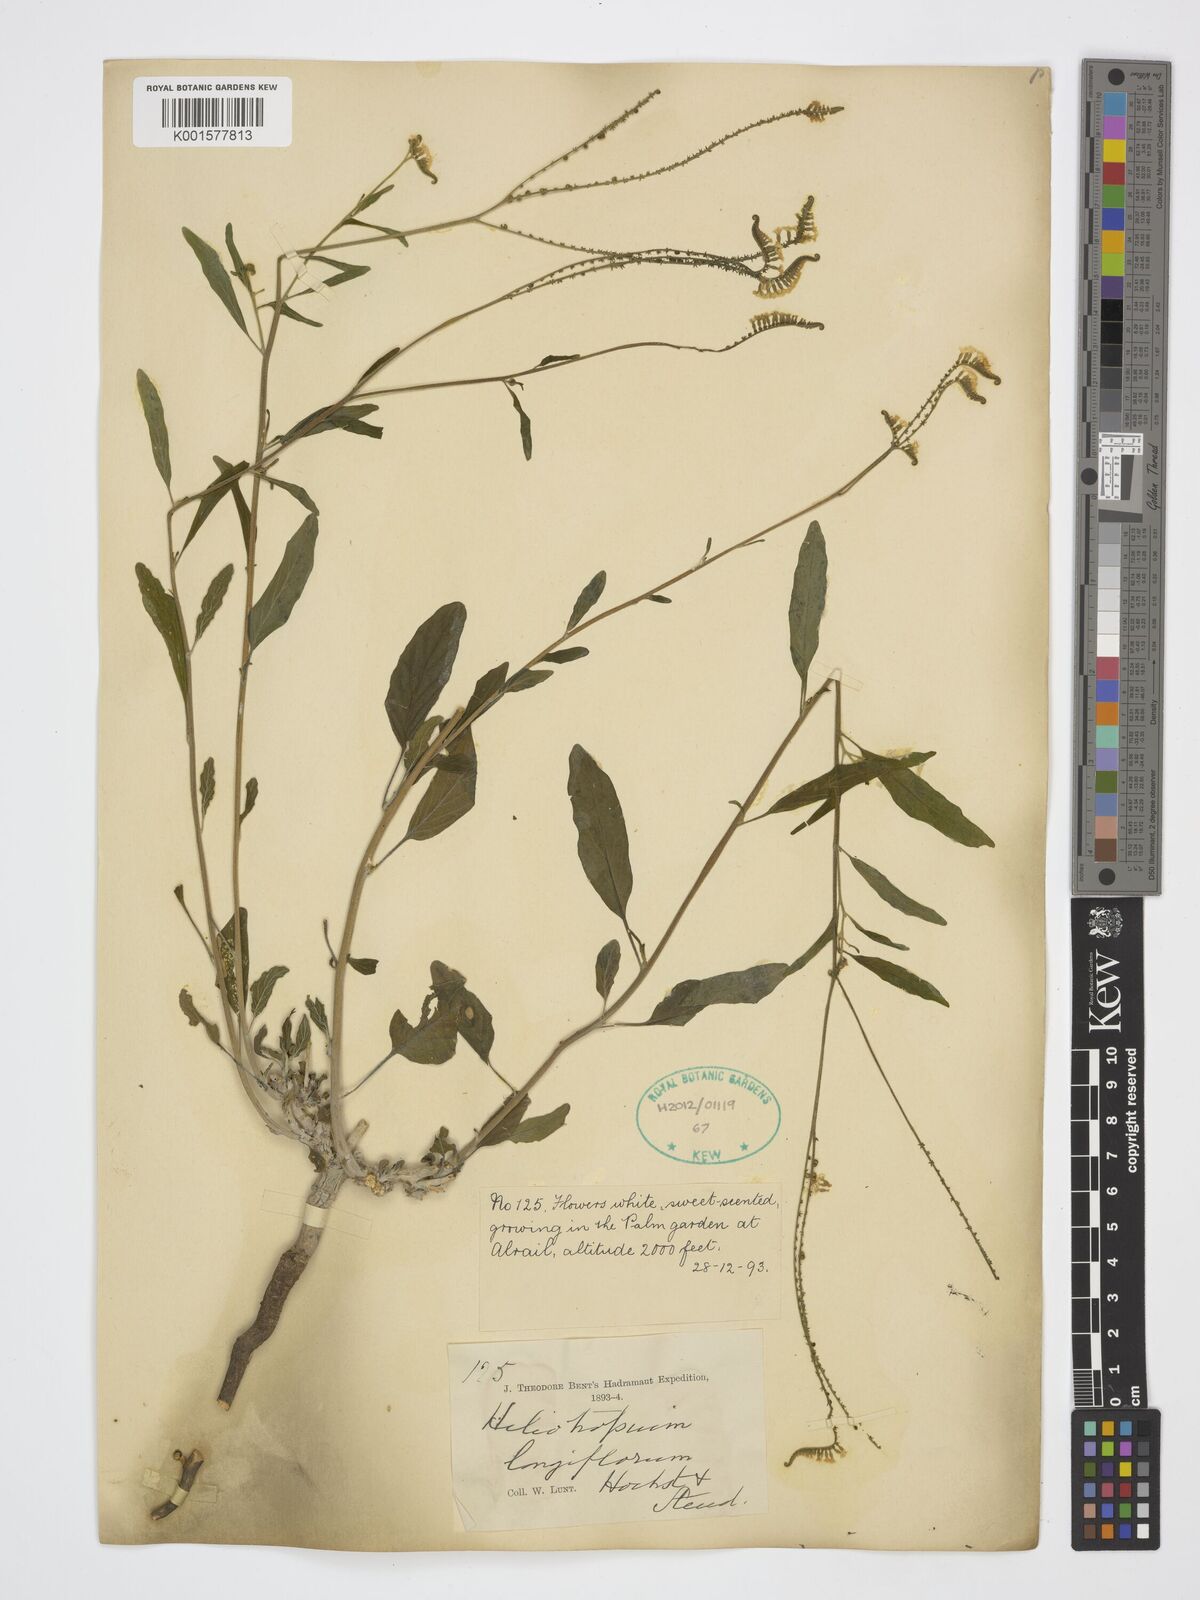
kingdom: Plantae
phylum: Tracheophyta
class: Magnoliopsida
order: Boraginales
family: Heliotropiaceae
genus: Heliotropium
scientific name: Heliotropium longiflorum
